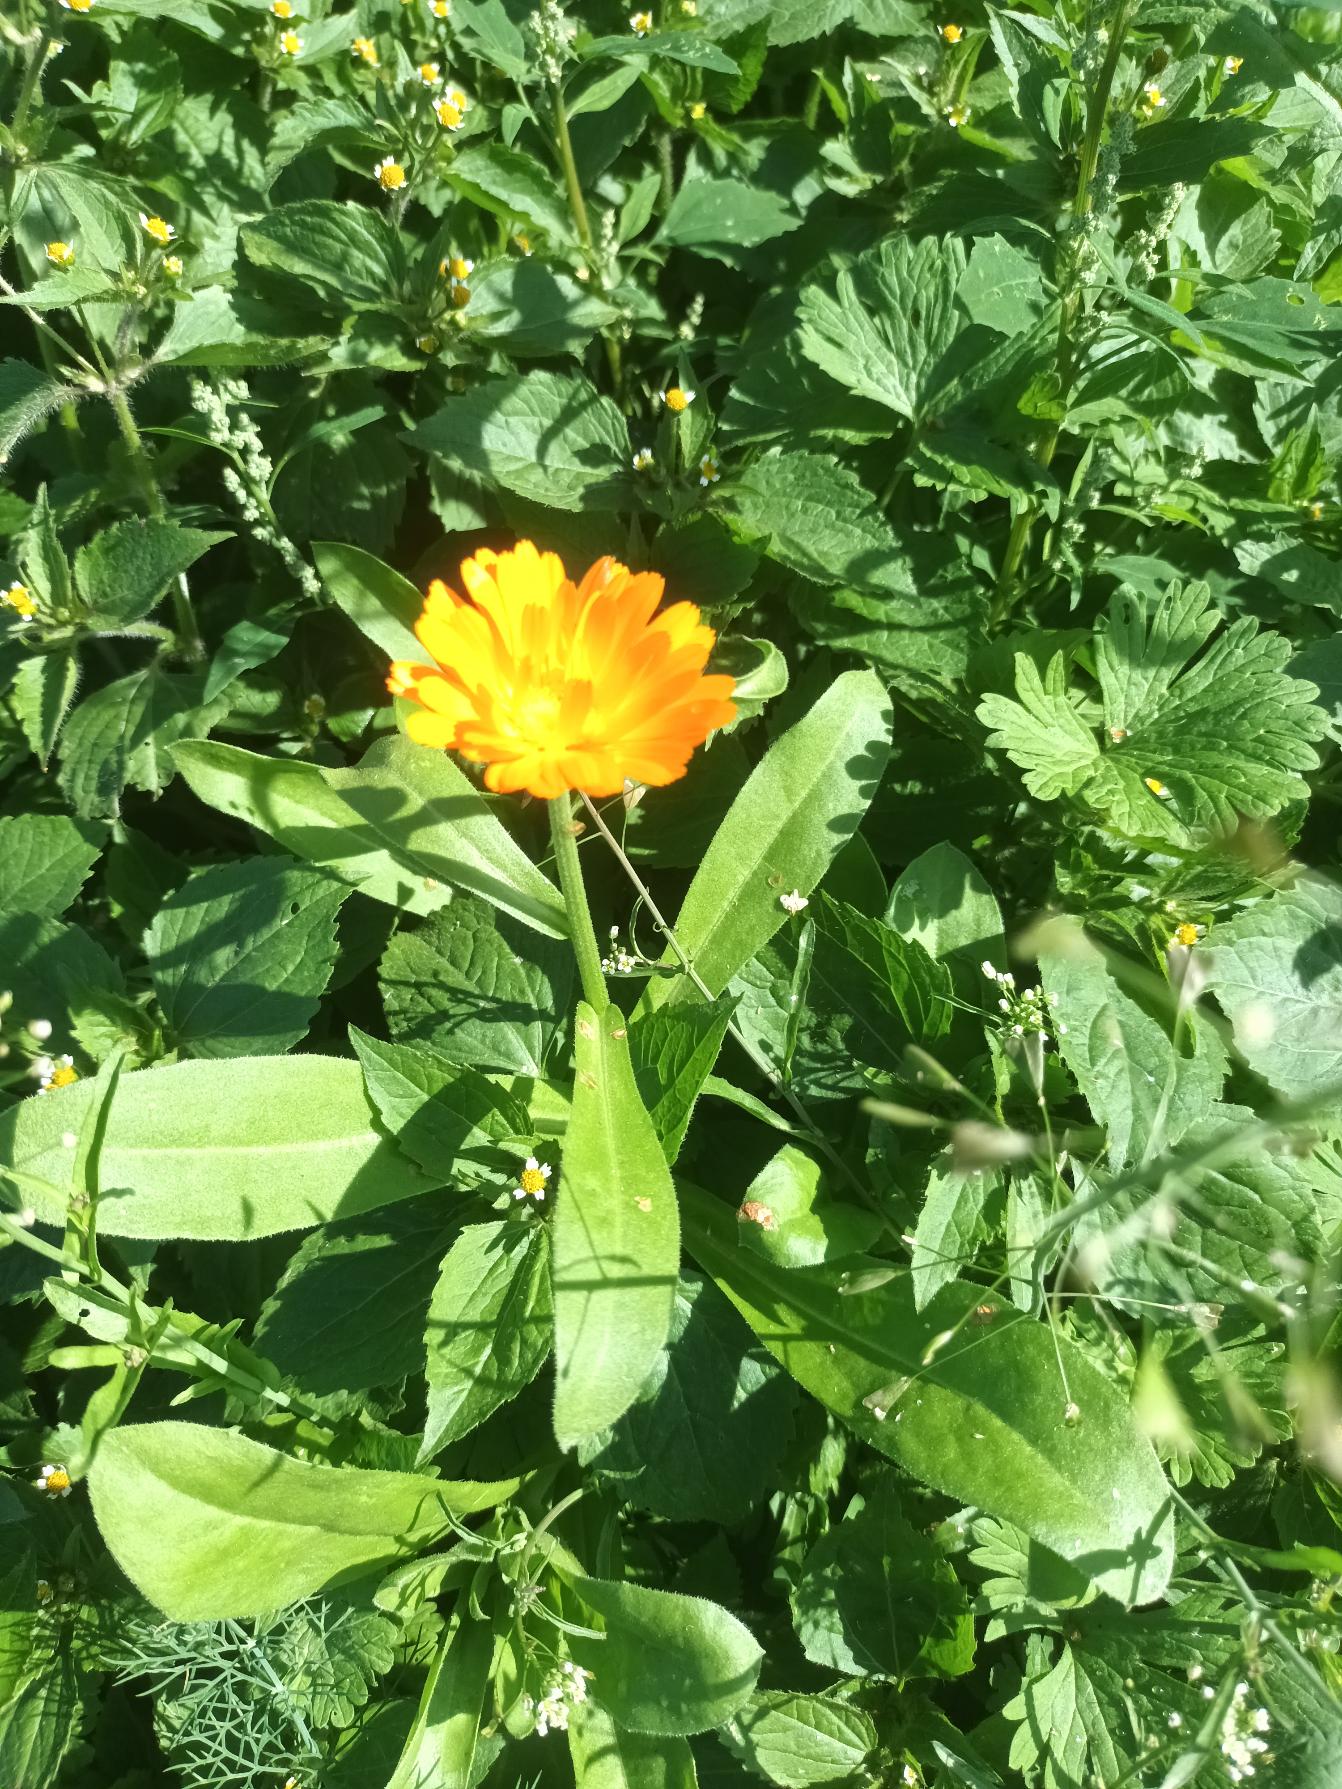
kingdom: Plantae
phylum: Tracheophyta
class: Magnoliopsida
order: Asterales
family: Asteraceae
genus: Calendula
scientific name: Calendula officinalis
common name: Have-morgenfrue
